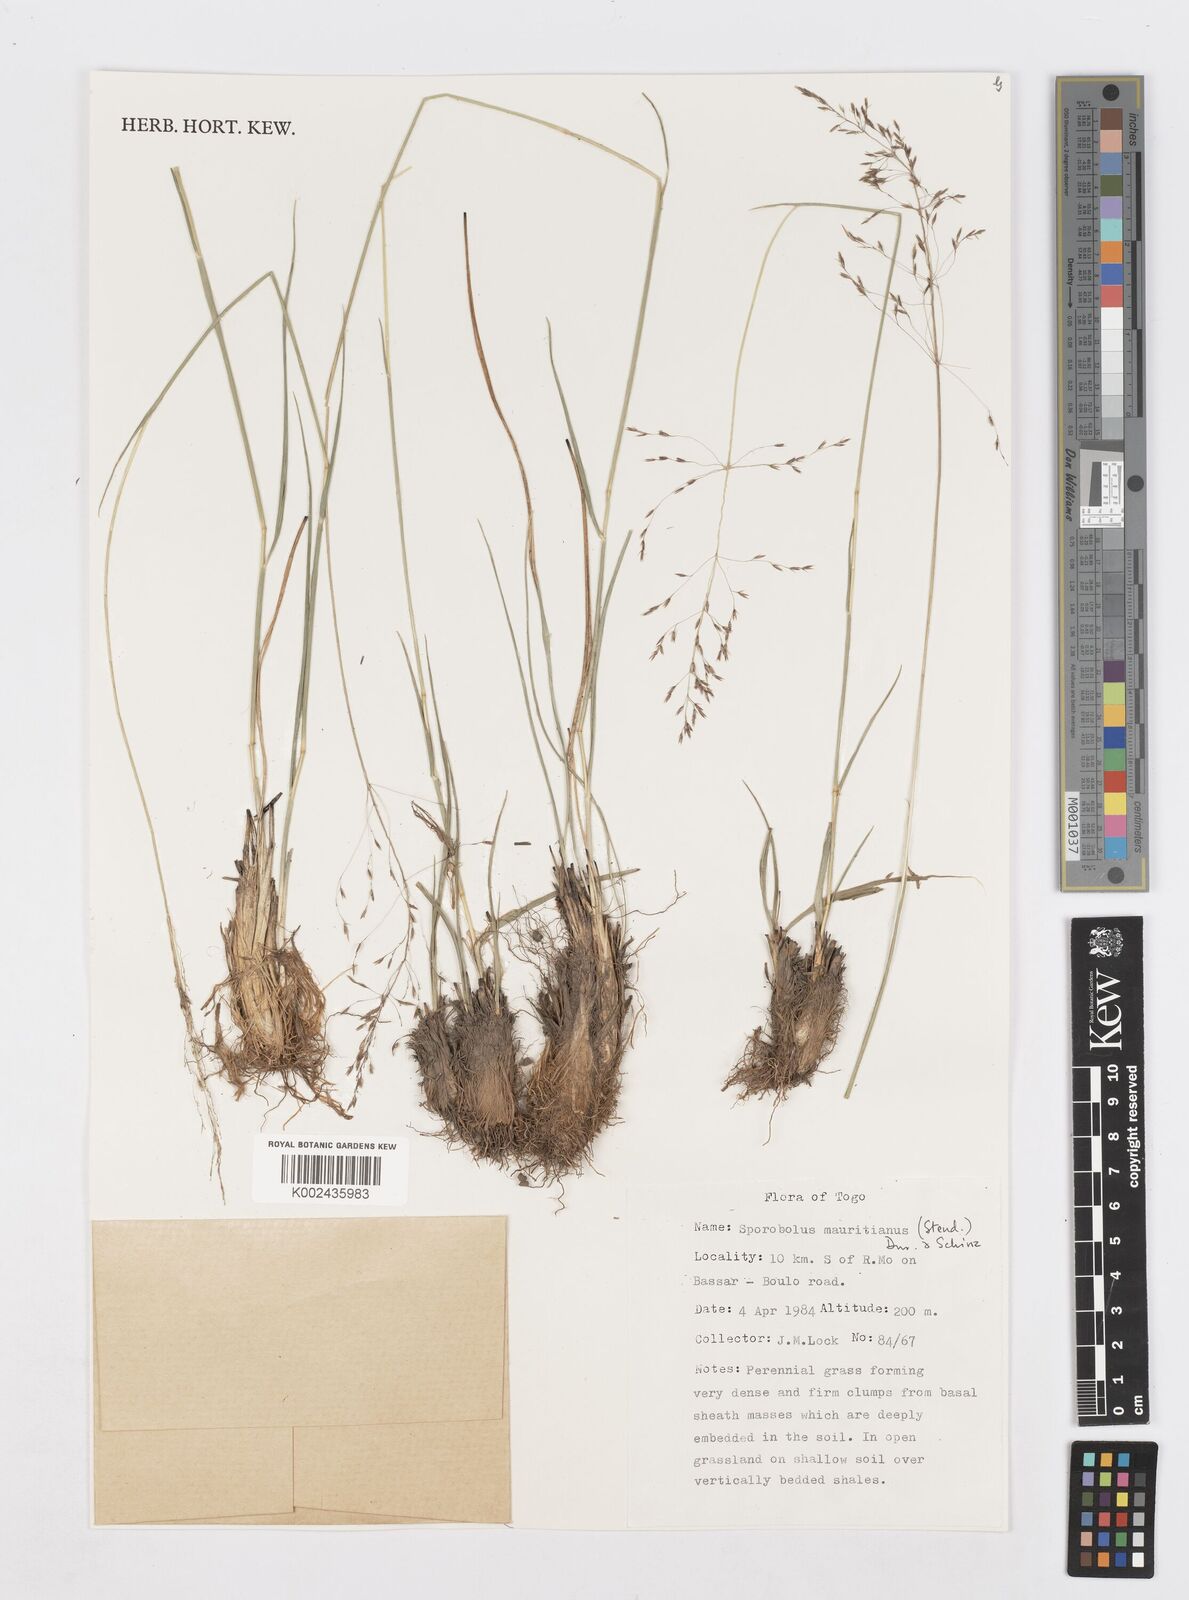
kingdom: Plantae
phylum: Tracheophyta
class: Liliopsida
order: Poales
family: Poaceae
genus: Sporobolus
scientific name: Sporobolus subulatus
